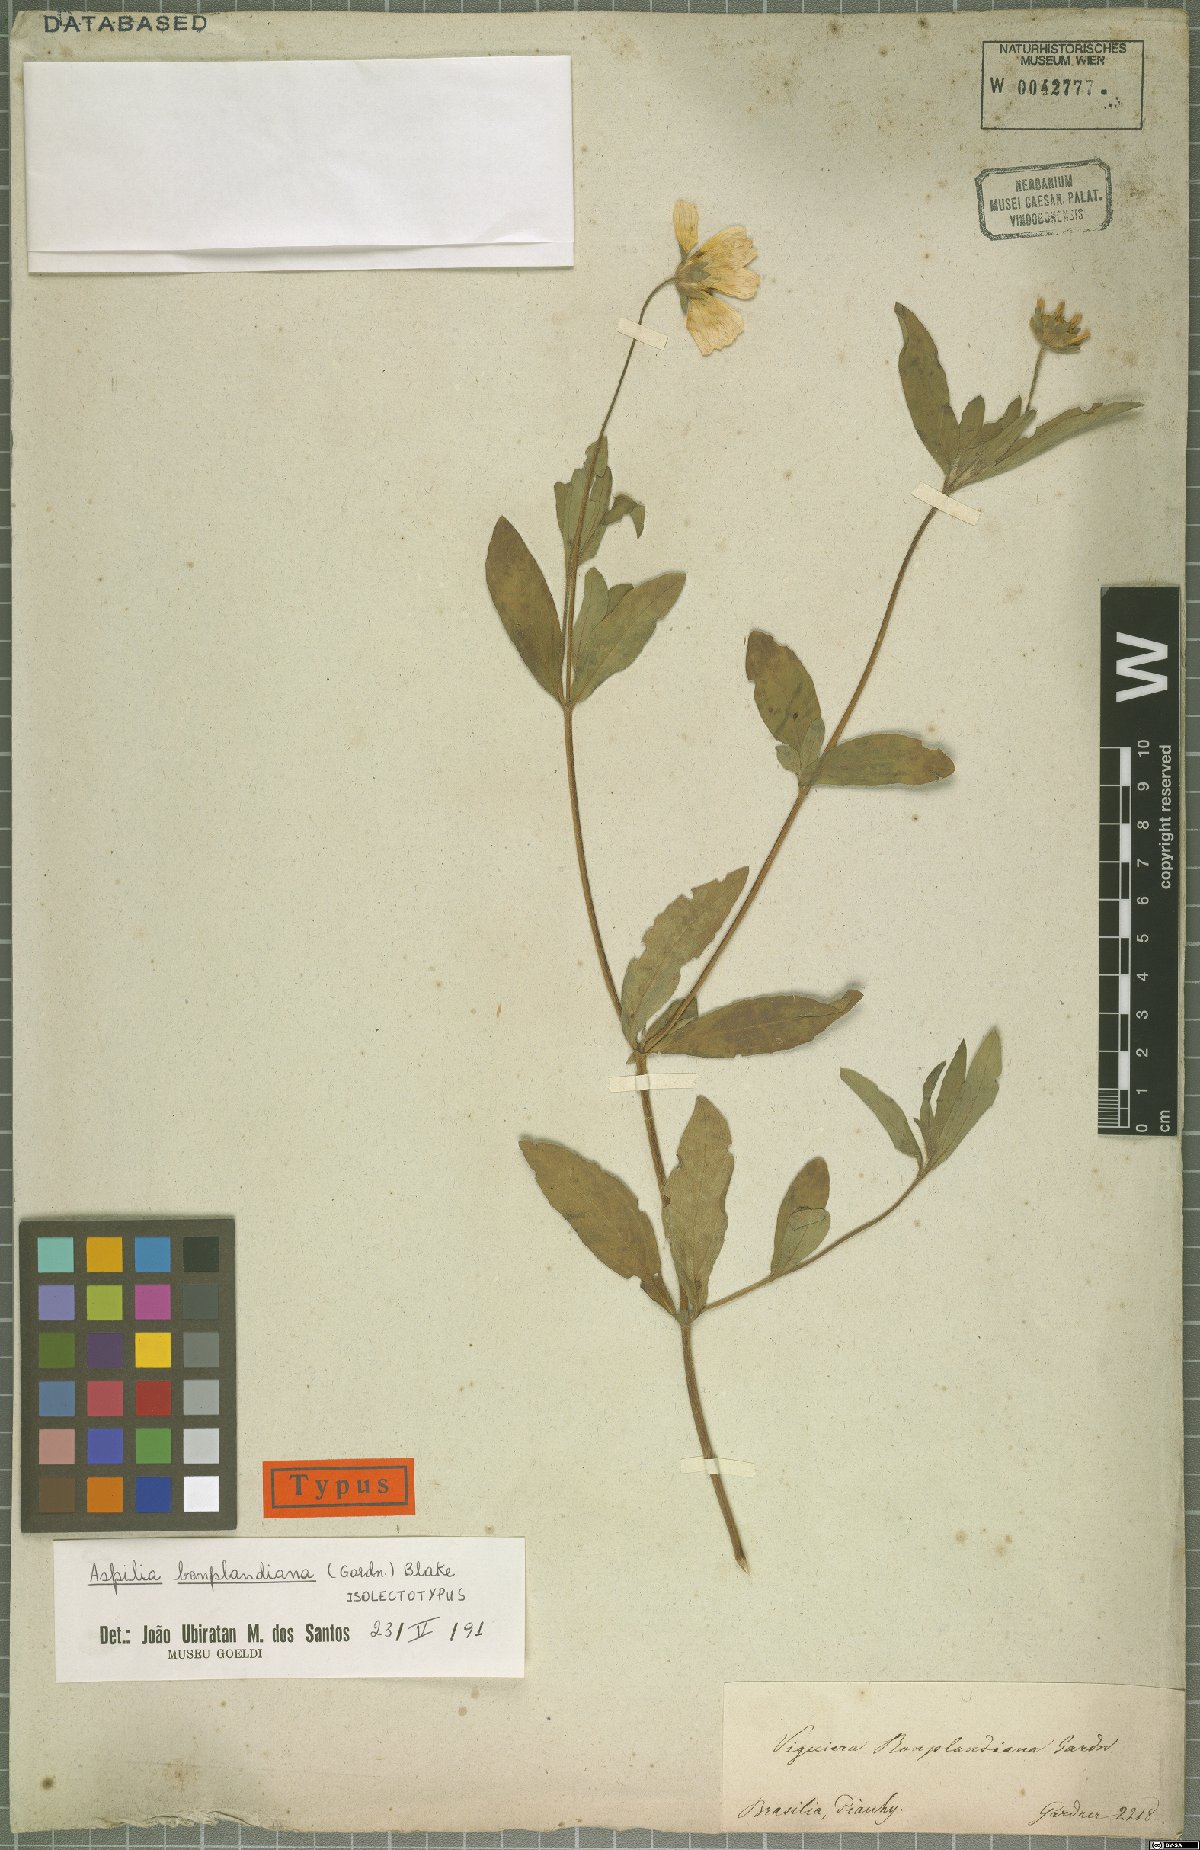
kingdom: Plantae
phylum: Tracheophyta
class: Magnoliopsida
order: Asterales
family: Asteraceae
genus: Wedelia
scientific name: Wedelia bonplandiana
